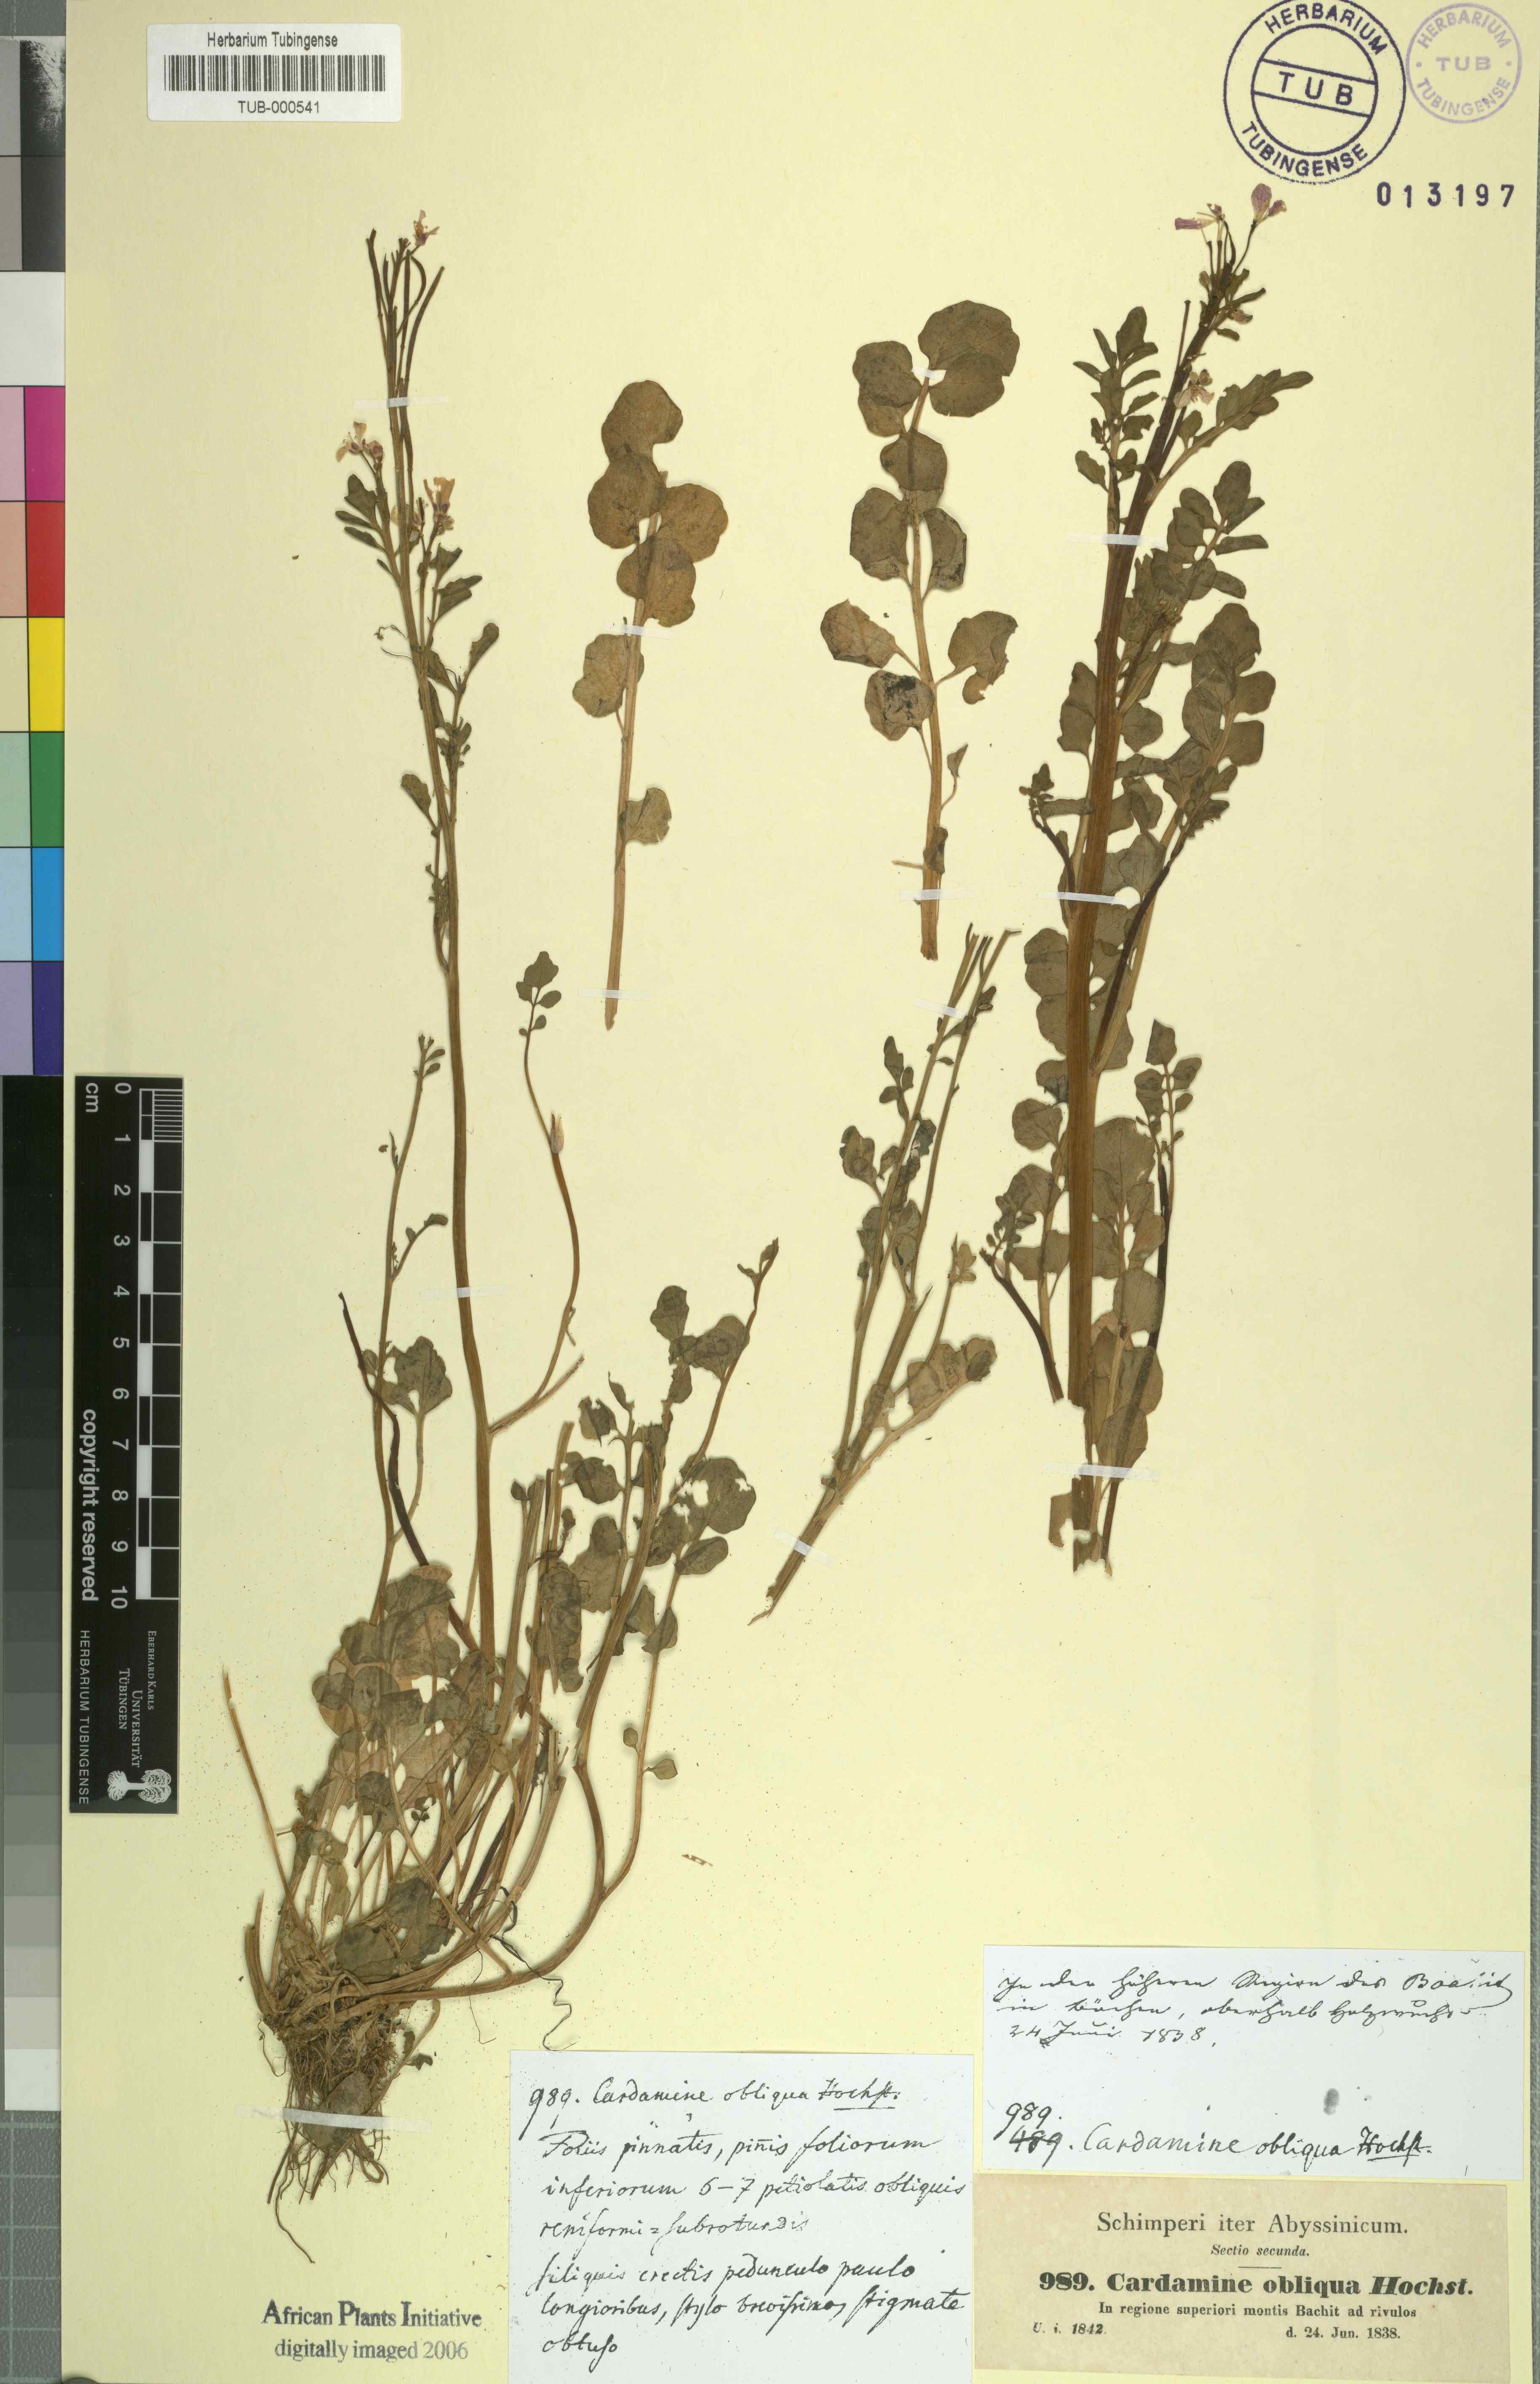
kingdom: Plantae
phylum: Tracheophyta
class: Magnoliopsida
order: Brassicales
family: Brassicaceae
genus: Cardamine
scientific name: Cardamine obliqua
